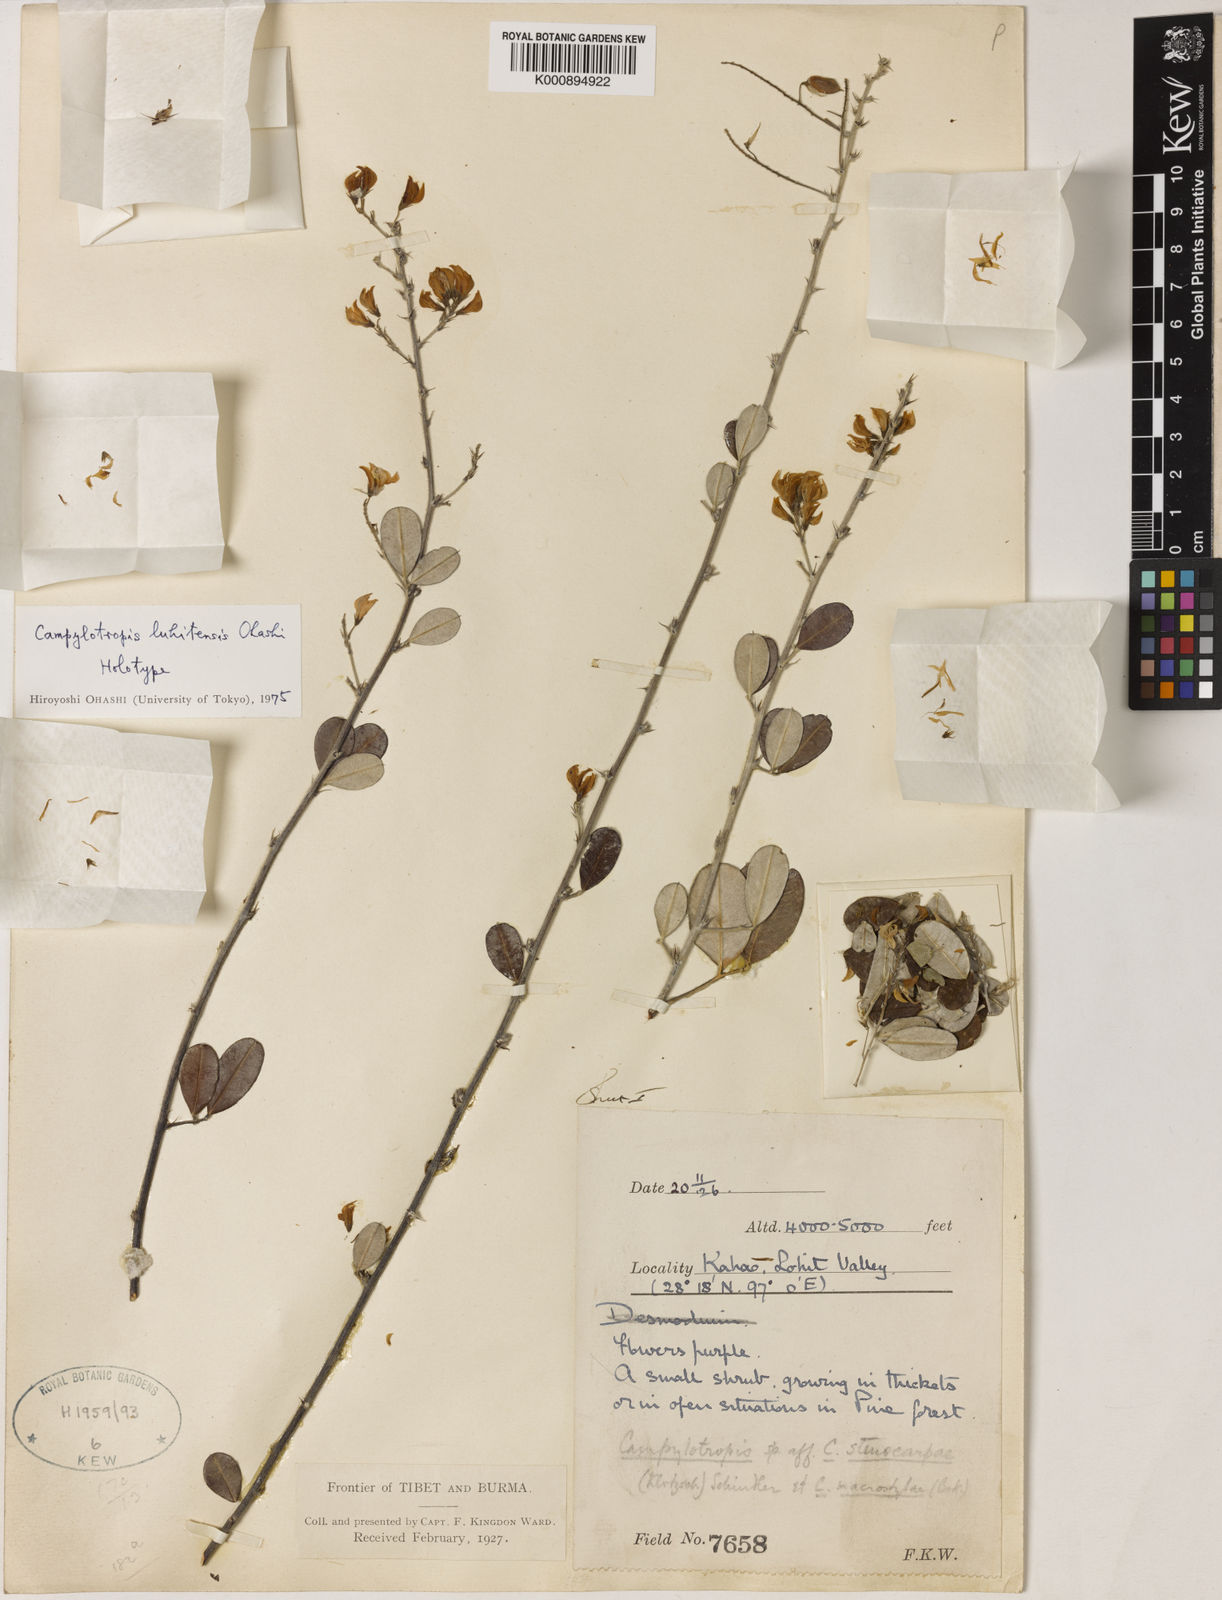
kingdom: Plantae
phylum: Tracheophyta
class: Magnoliopsida
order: Fabales
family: Fabaceae
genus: Campylotropis
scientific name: Campylotropis luhitensis
